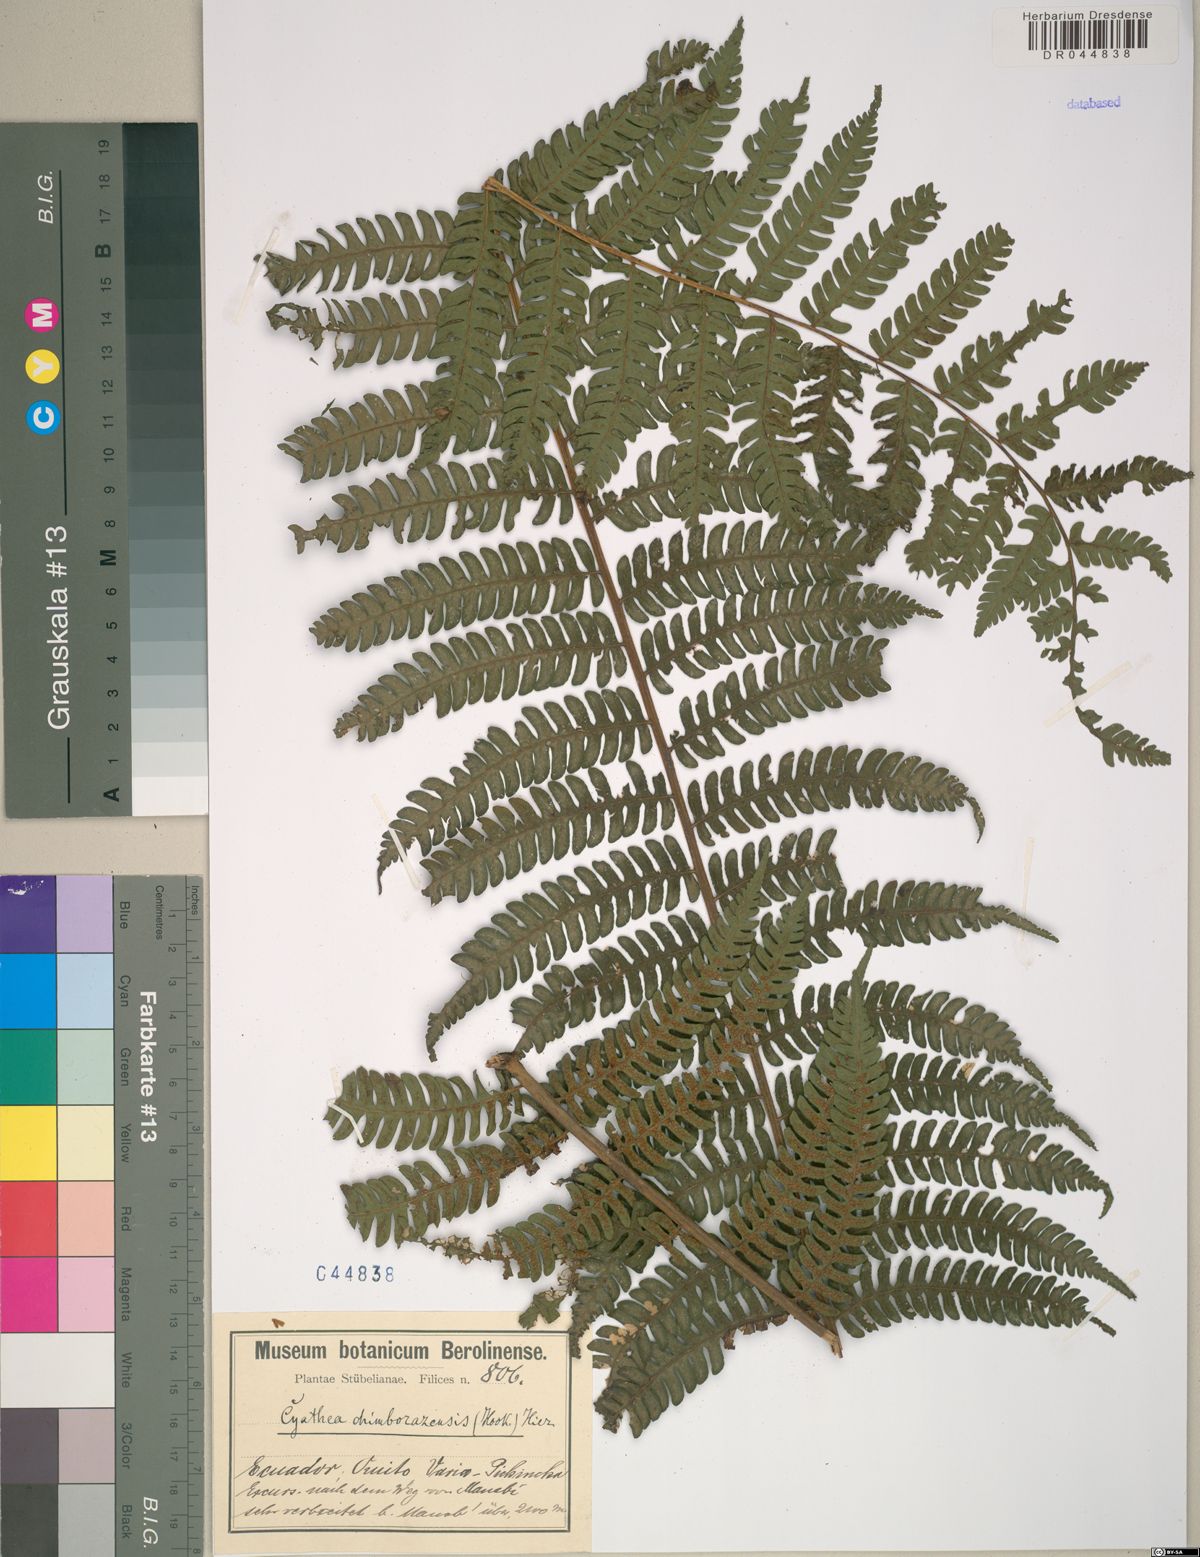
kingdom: Plantae
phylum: Tracheophyta
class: Polypodiopsida
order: Cyatheales
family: Cyatheaceae
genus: Cyathea
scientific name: Cyathea chimborazensis
